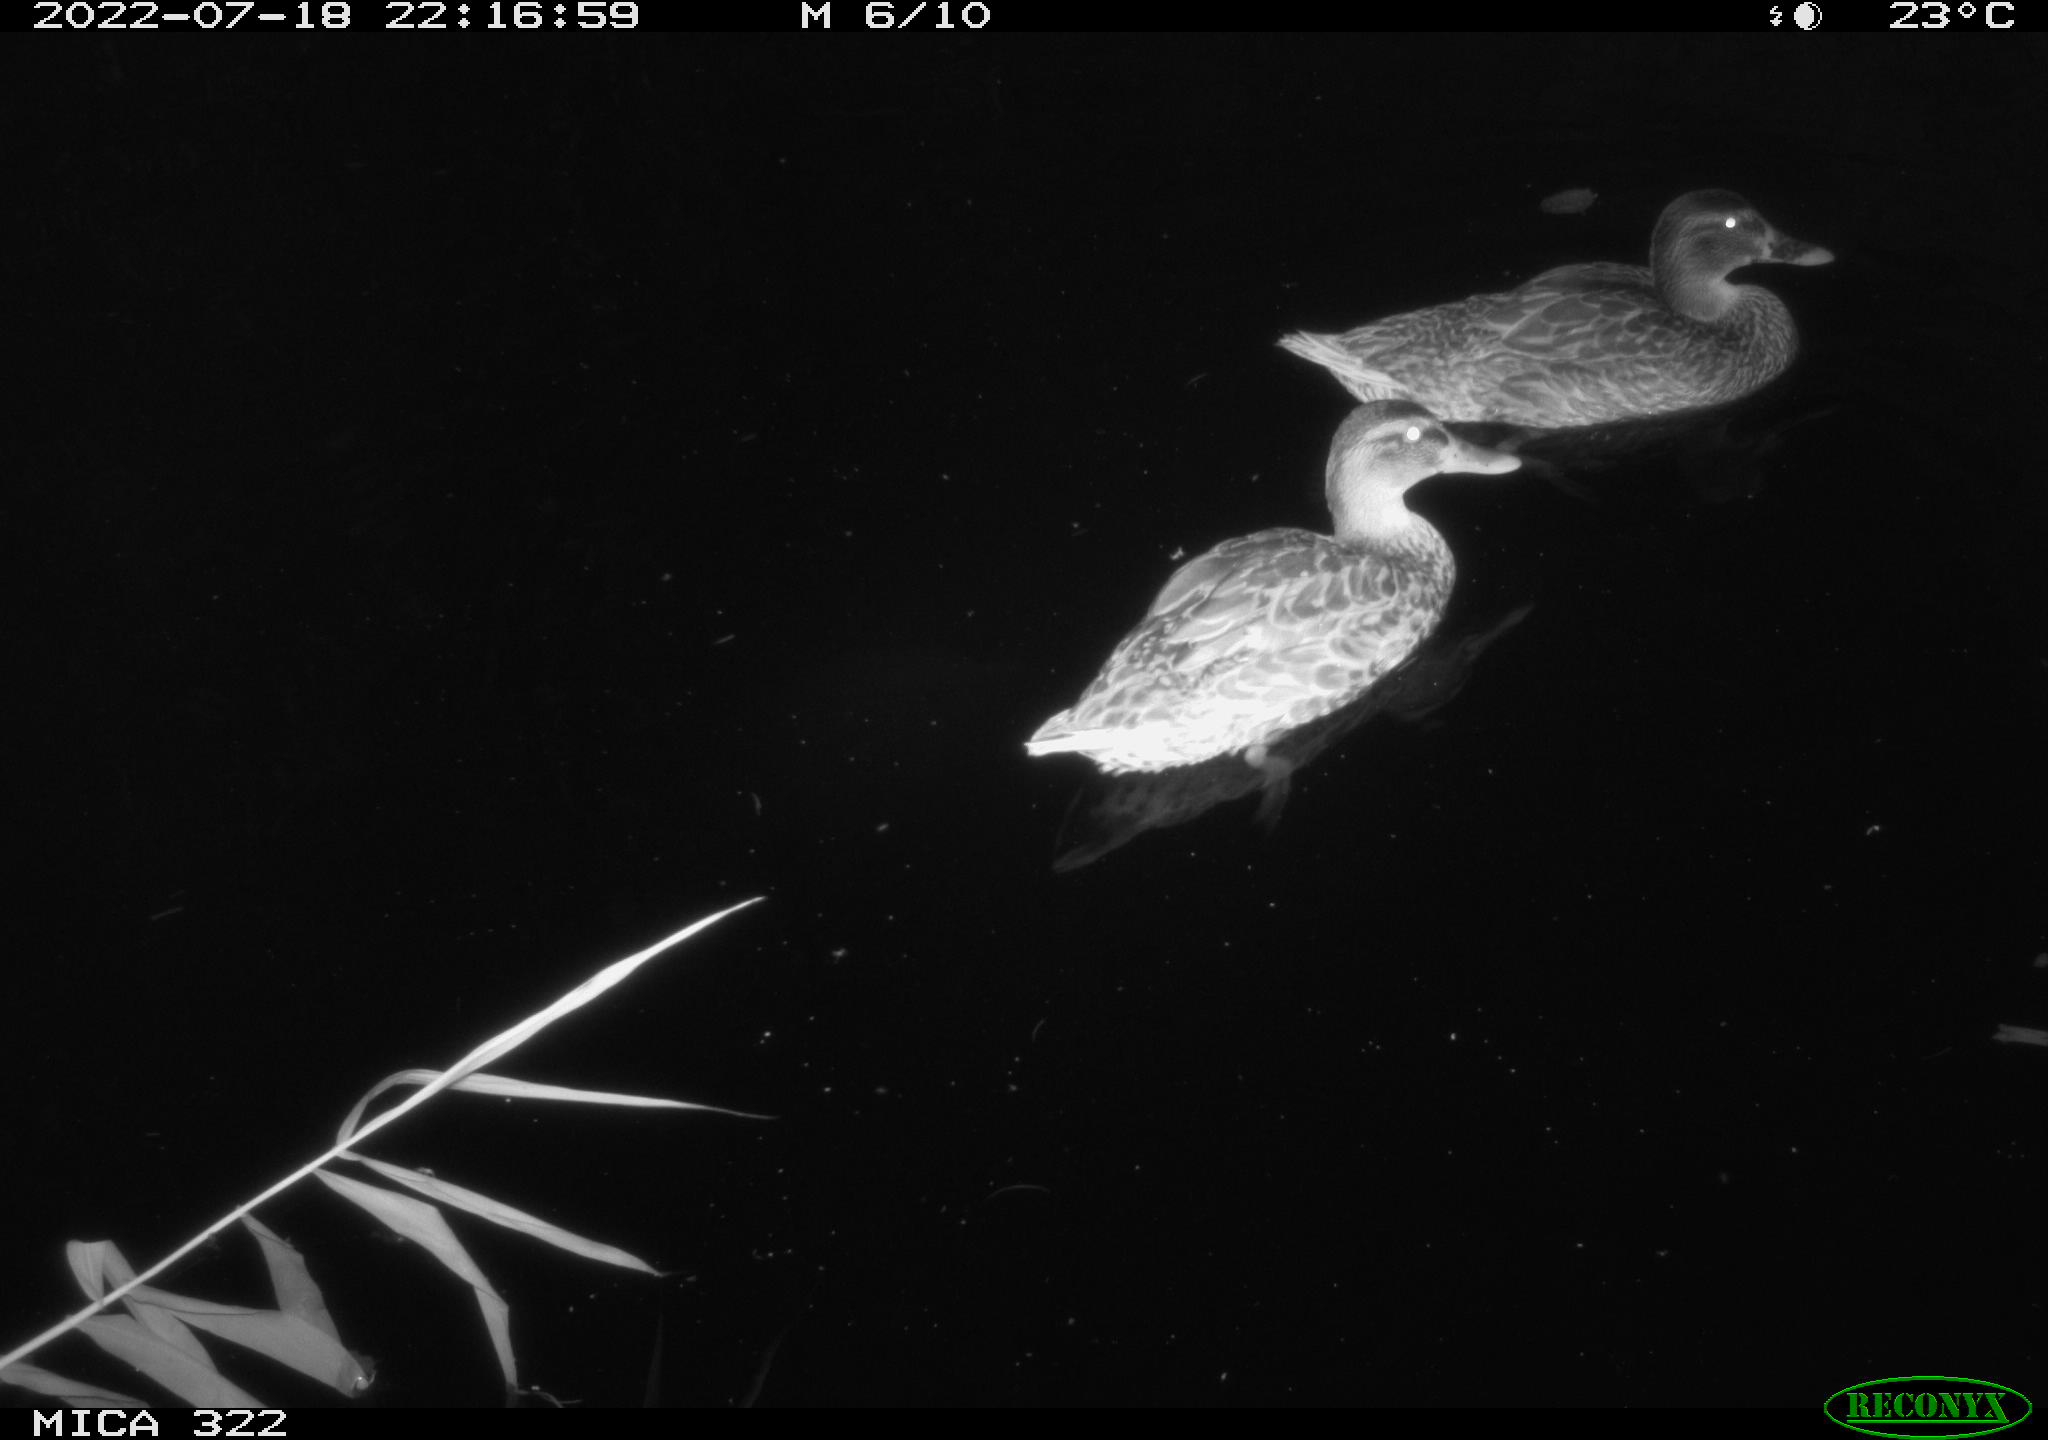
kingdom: Animalia
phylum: Chordata
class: Aves
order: Anseriformes
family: Anatidae
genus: Anas
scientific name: Anas platyrhynchos
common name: Mallard
